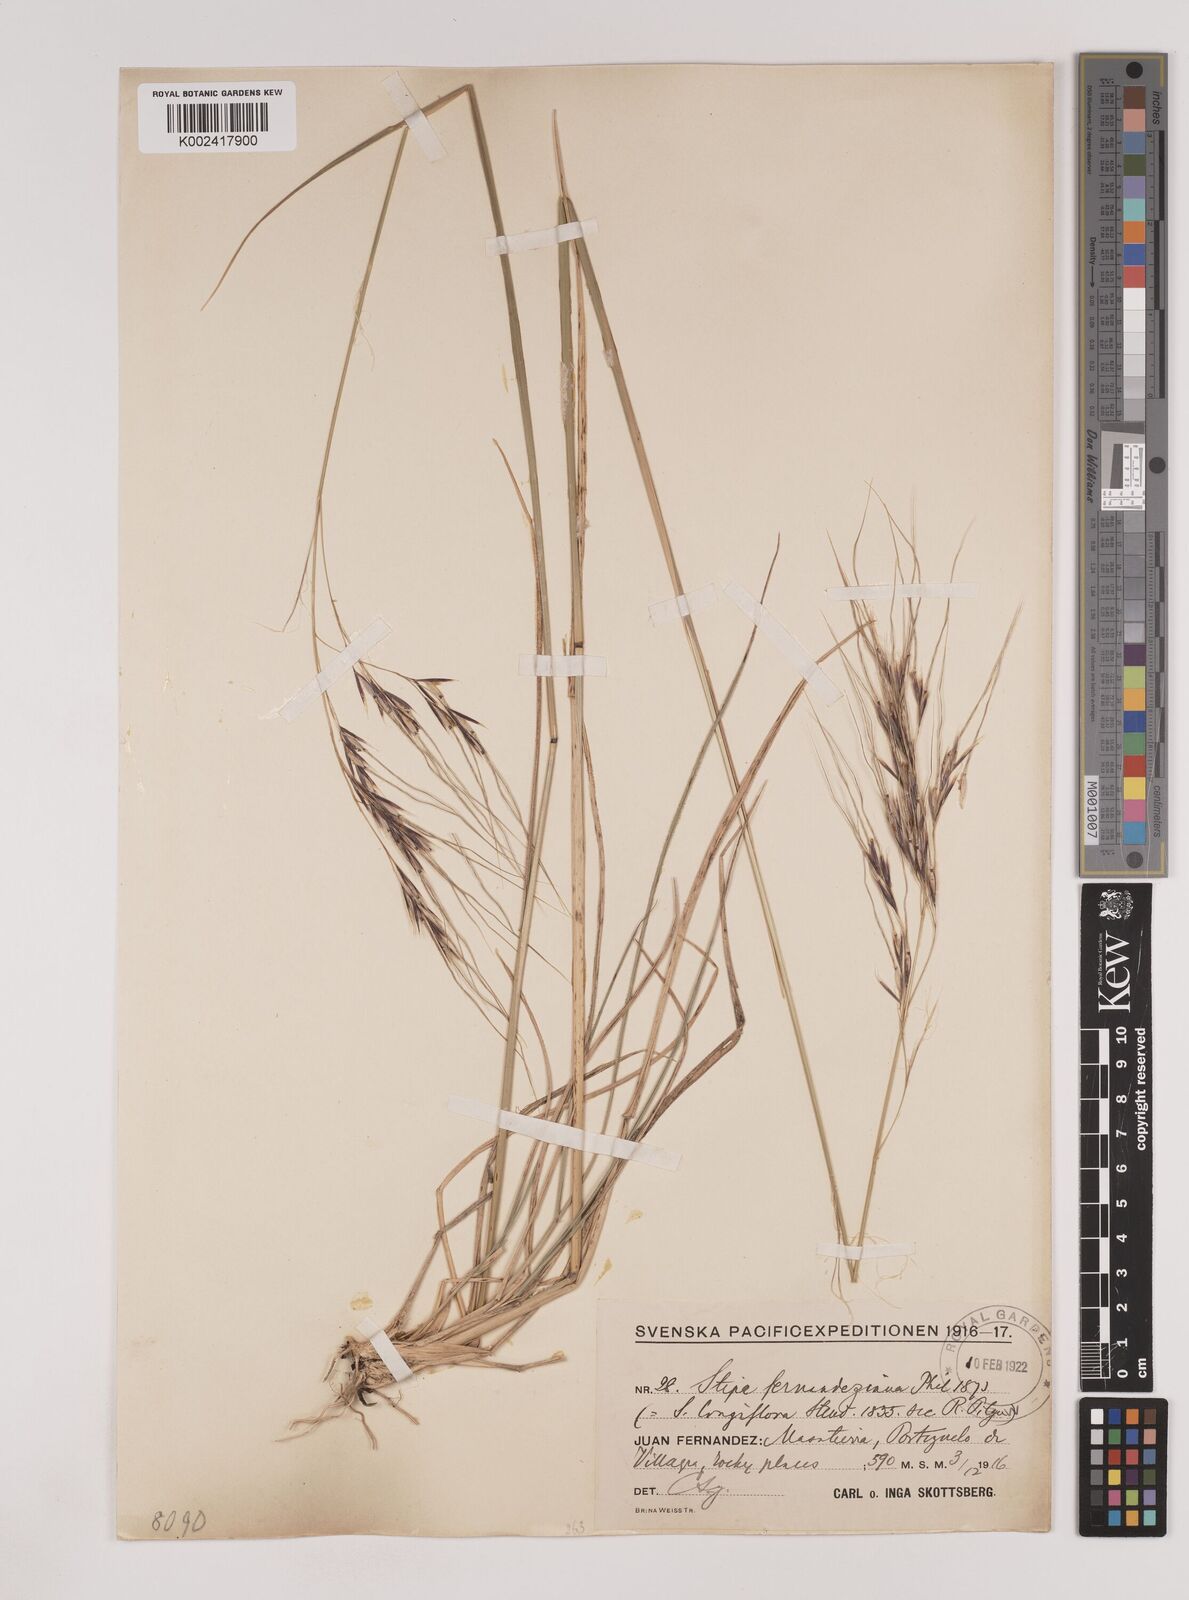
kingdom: Plantae
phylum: Tracheophyta
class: Liliopsida
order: Poales
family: Poaceae
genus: Nassella
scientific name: Nassella neesiana
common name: American needle-grass
